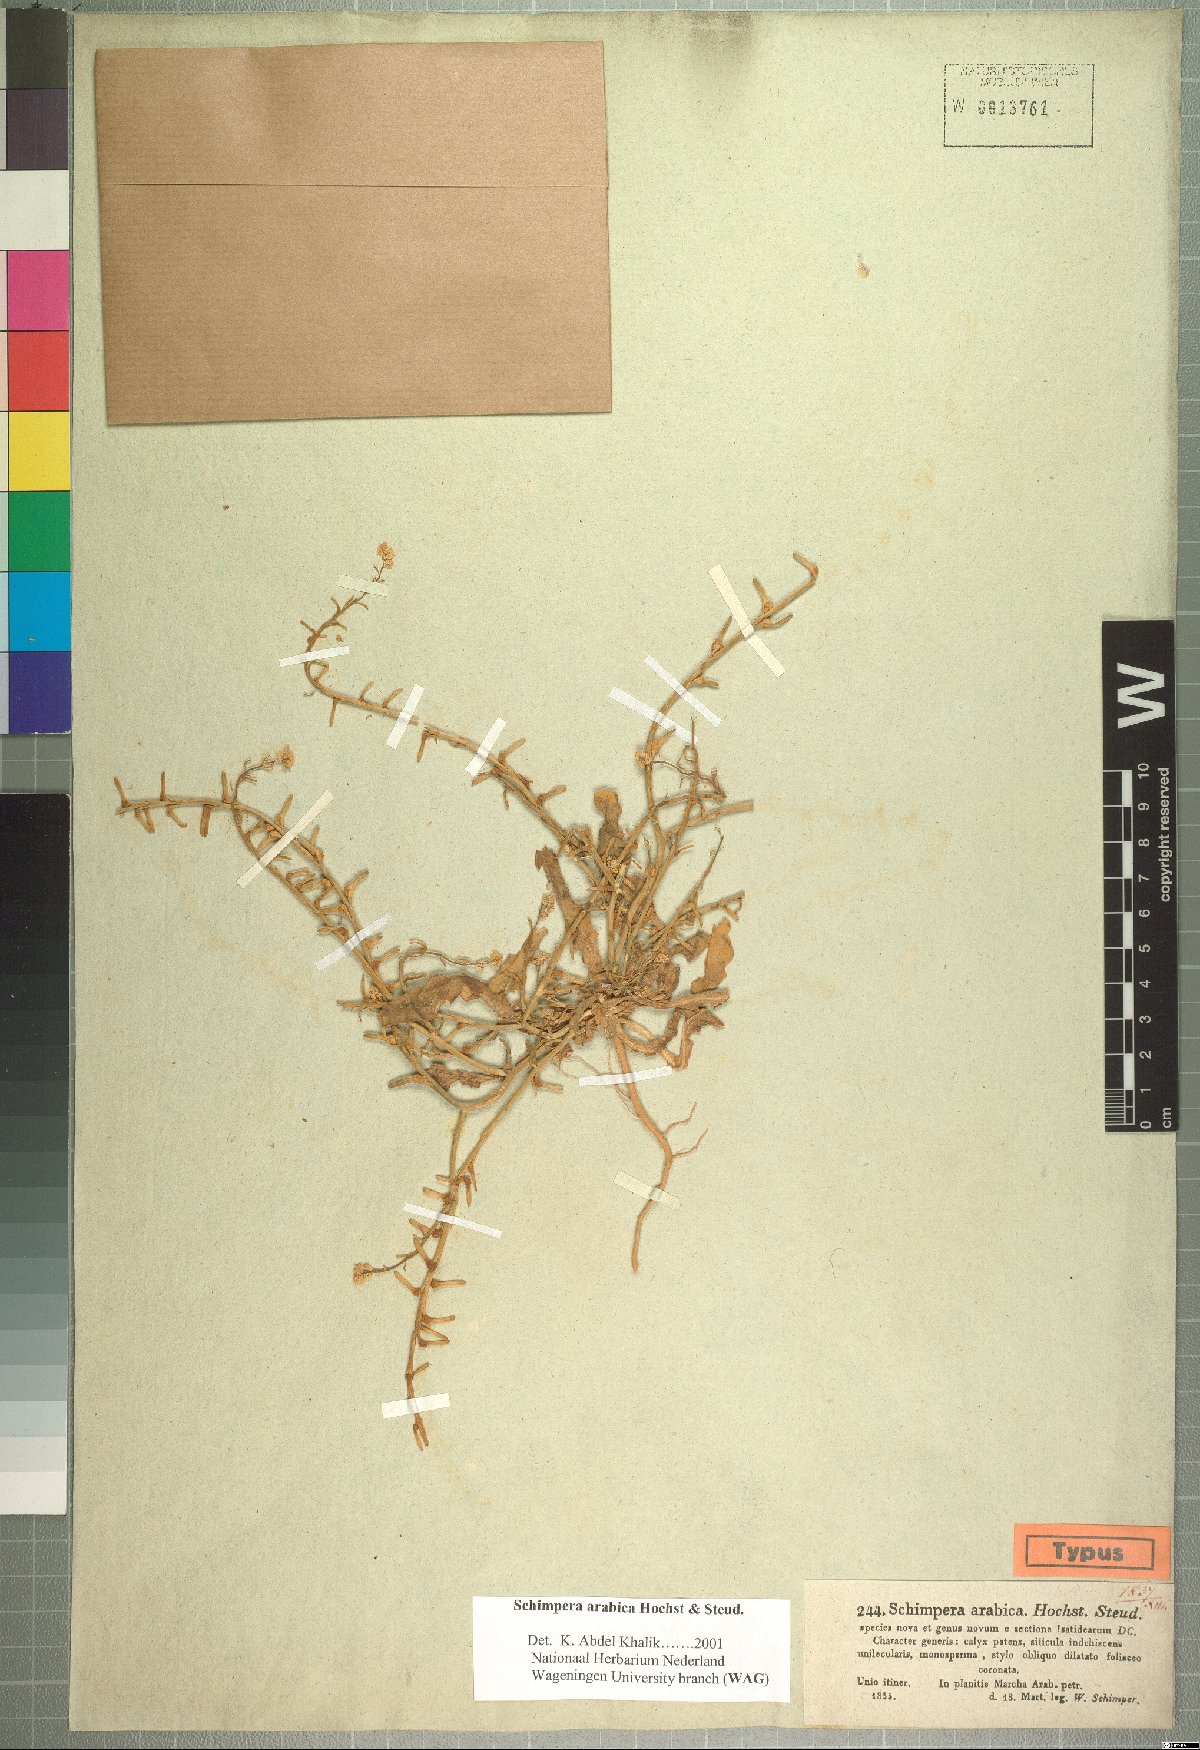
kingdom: Plantae
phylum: Tracheophyta
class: Magnoliopsida
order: Brassicales
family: Brassicaceae
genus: Schimpera
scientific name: Schimpera arabica
